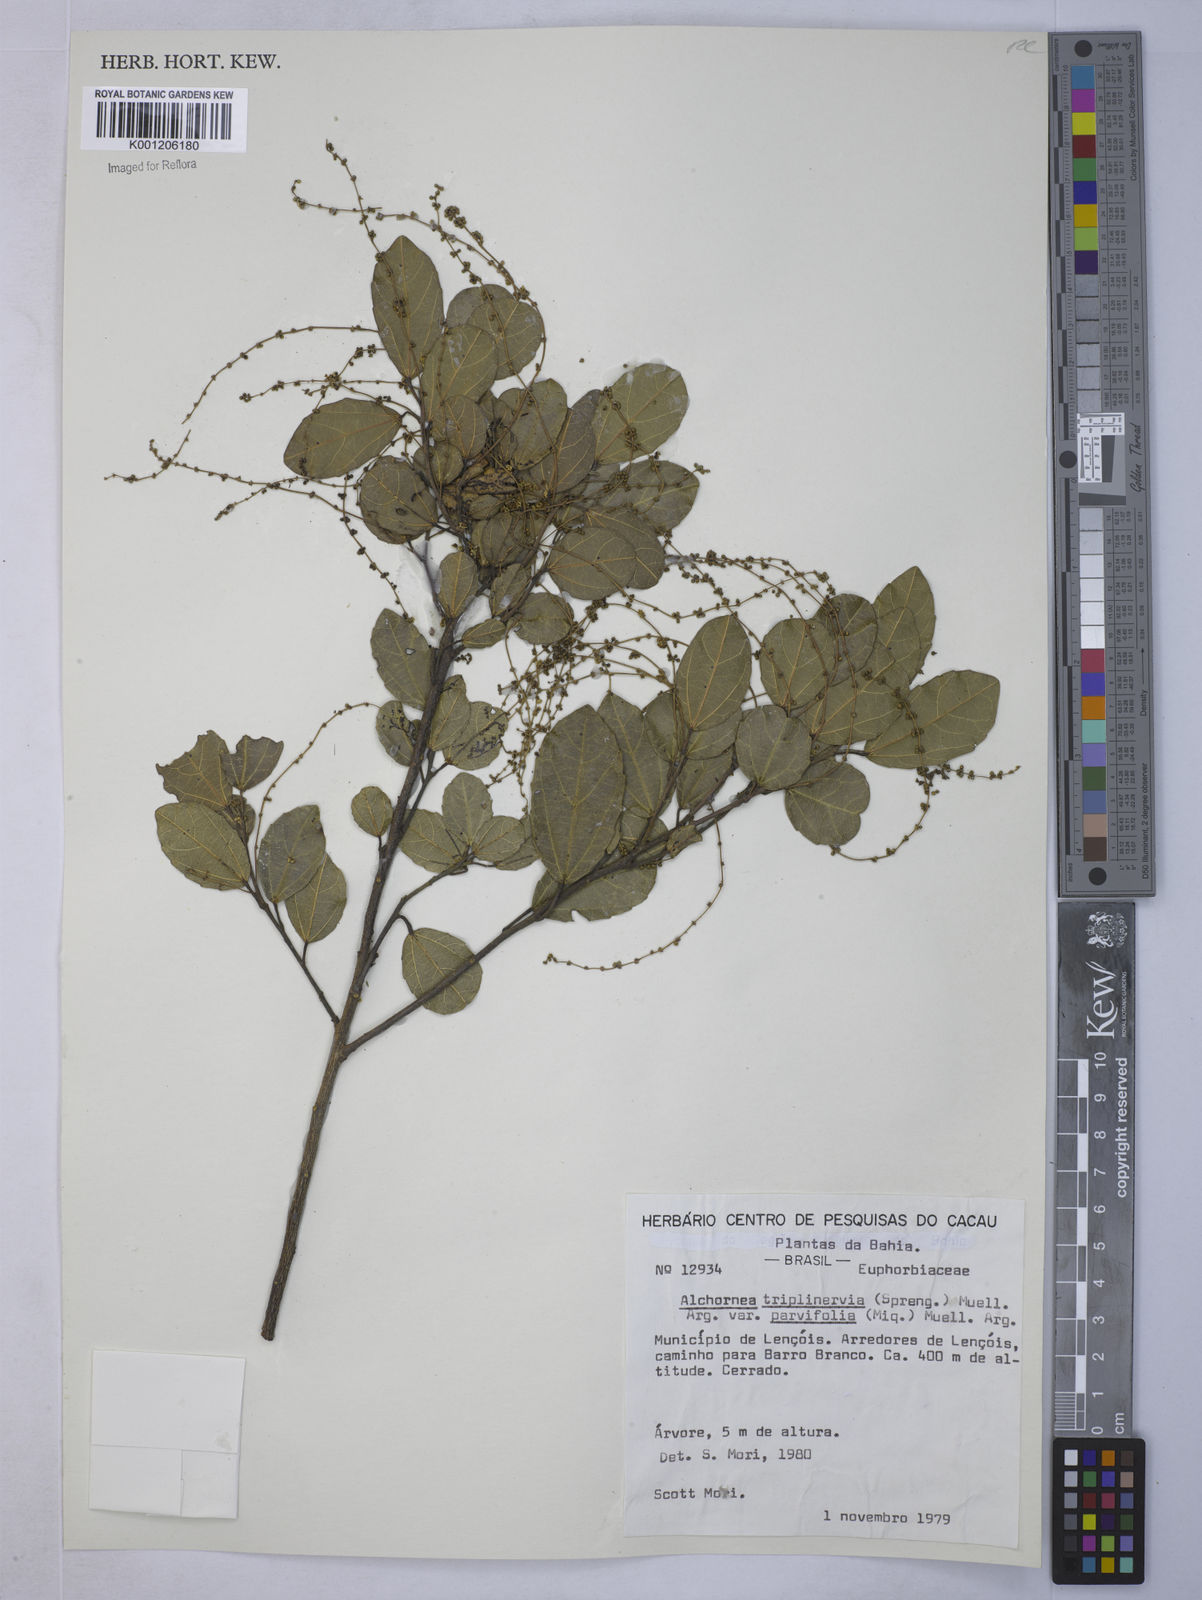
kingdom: Plantae
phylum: Tracheophyta
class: Magnoliopsida
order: Malpighiales
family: Euphorbiaceae
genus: Alchornea
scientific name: Alchornea
